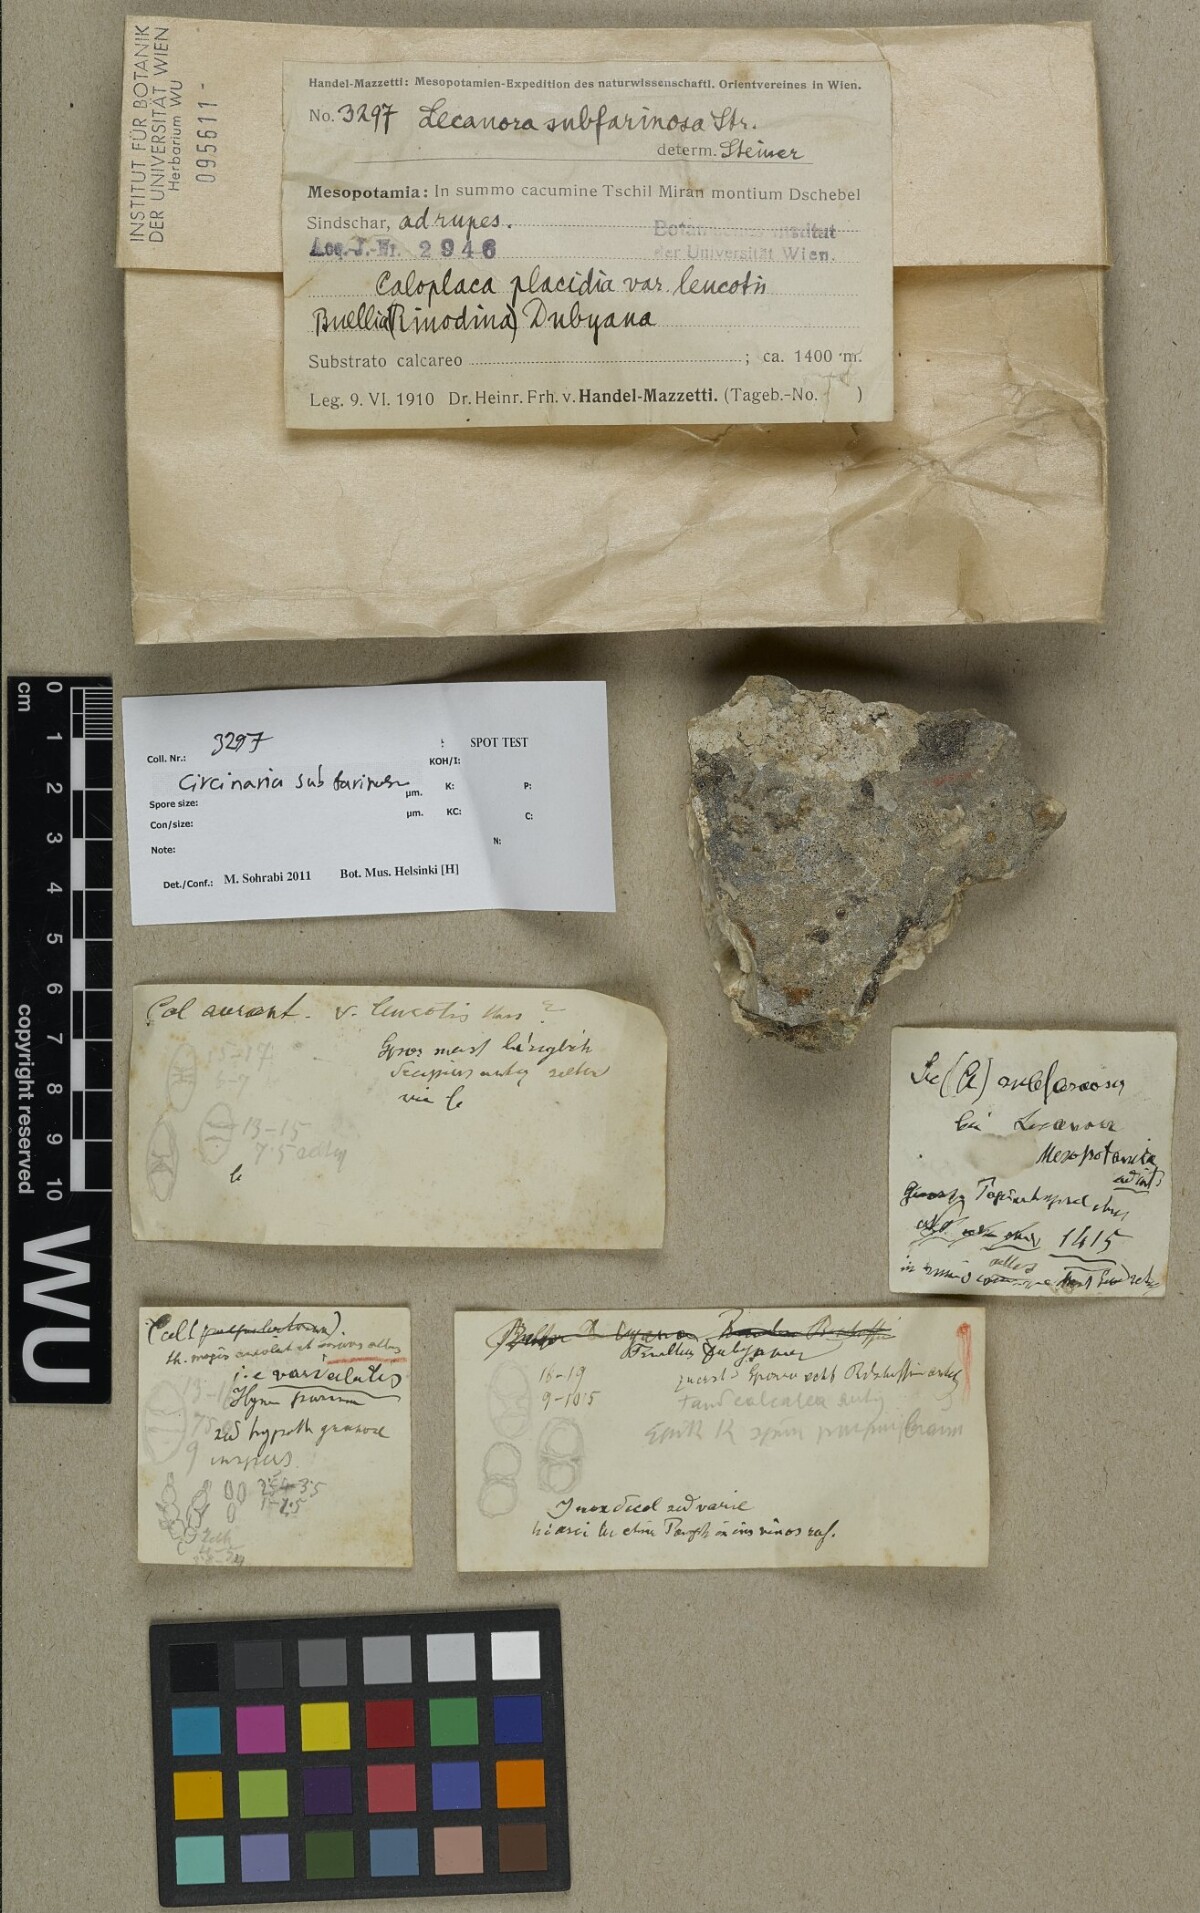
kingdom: Fungi
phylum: Ascomycota
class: Lecanoromycetes
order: Pertusariales
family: Megasporaceae
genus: Aspicilia
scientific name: Aspicilia subfarinosa
